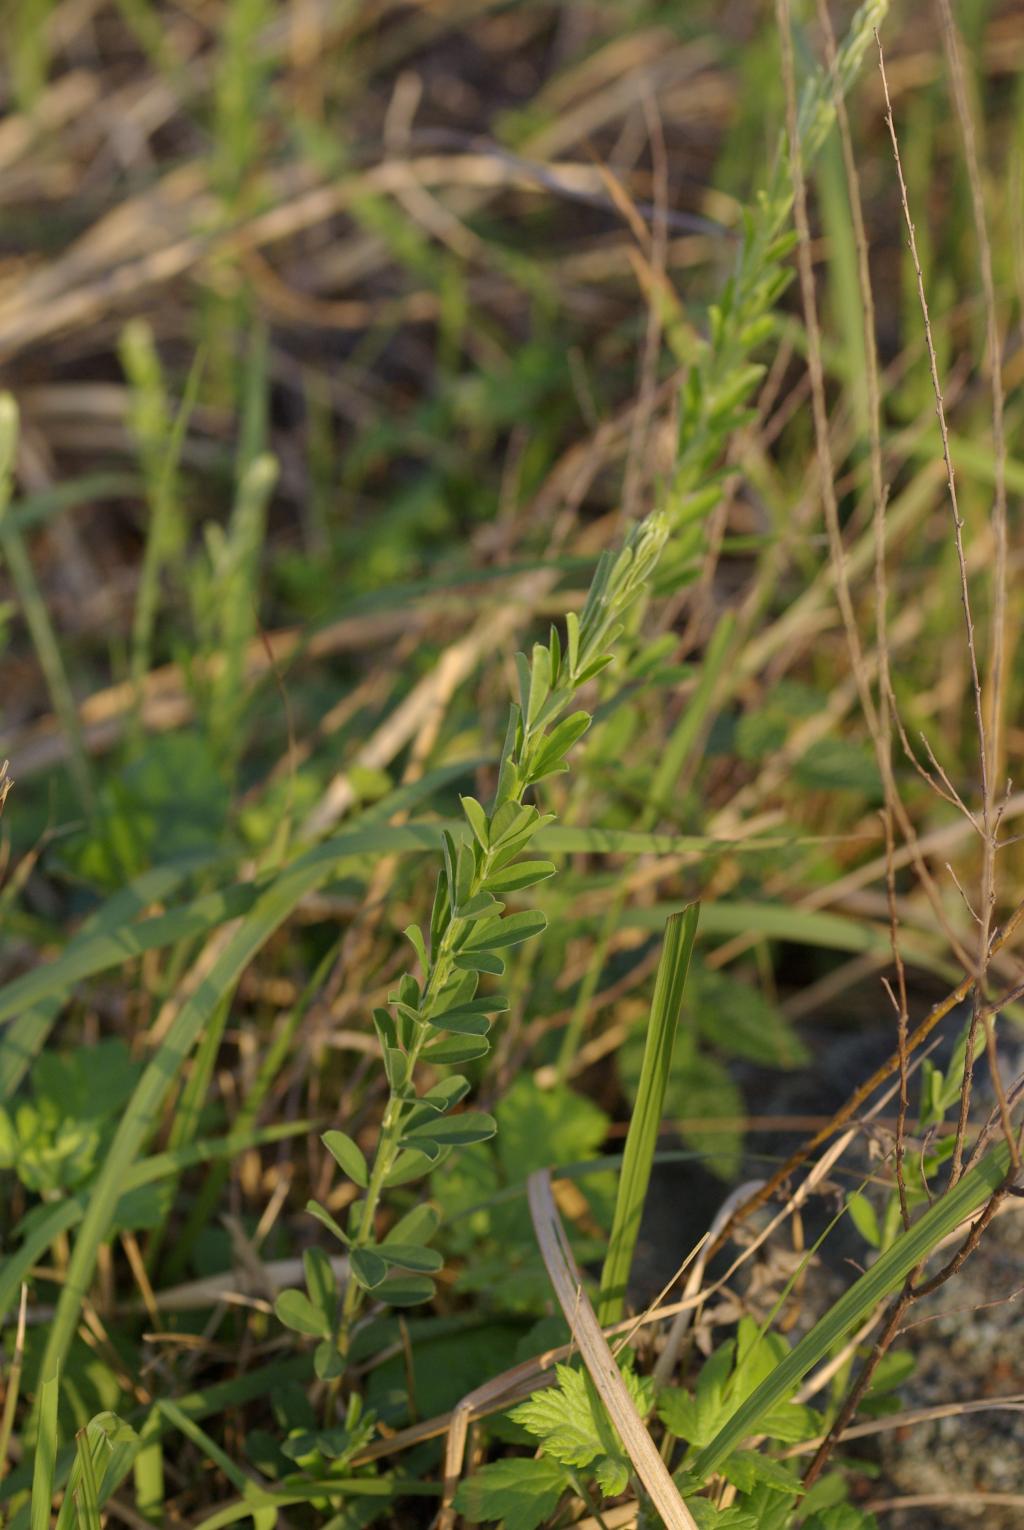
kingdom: Plantae
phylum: Tracheophyta
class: Magnoliopsida
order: Fabales
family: Fabaceae
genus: Lespedeza
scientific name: Lespedeza cuneata
